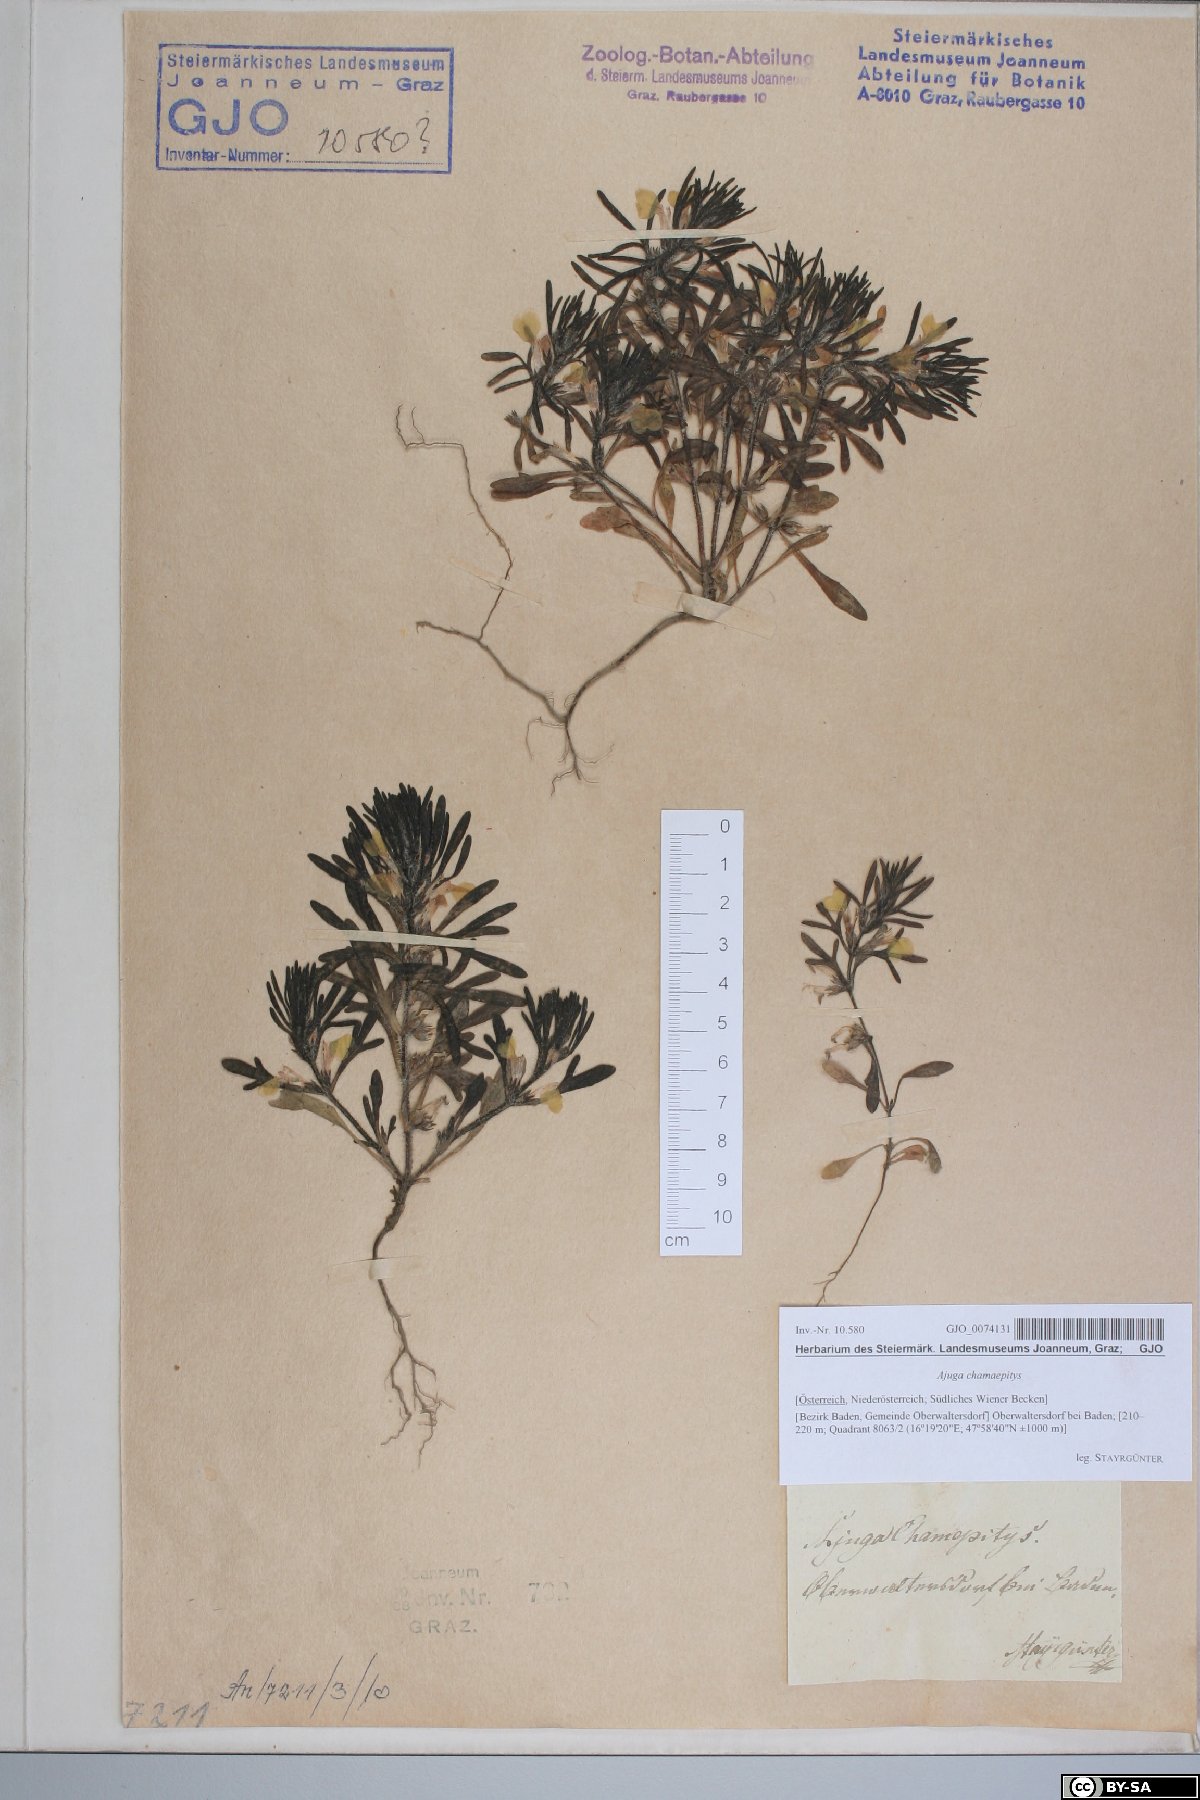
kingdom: Plantae
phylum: Tracheophyta
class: Magnoliopsida
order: Lamiales
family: Lamiaceae
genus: Ajuga
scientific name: Ajuga chamaepitys
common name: Ground-pine
